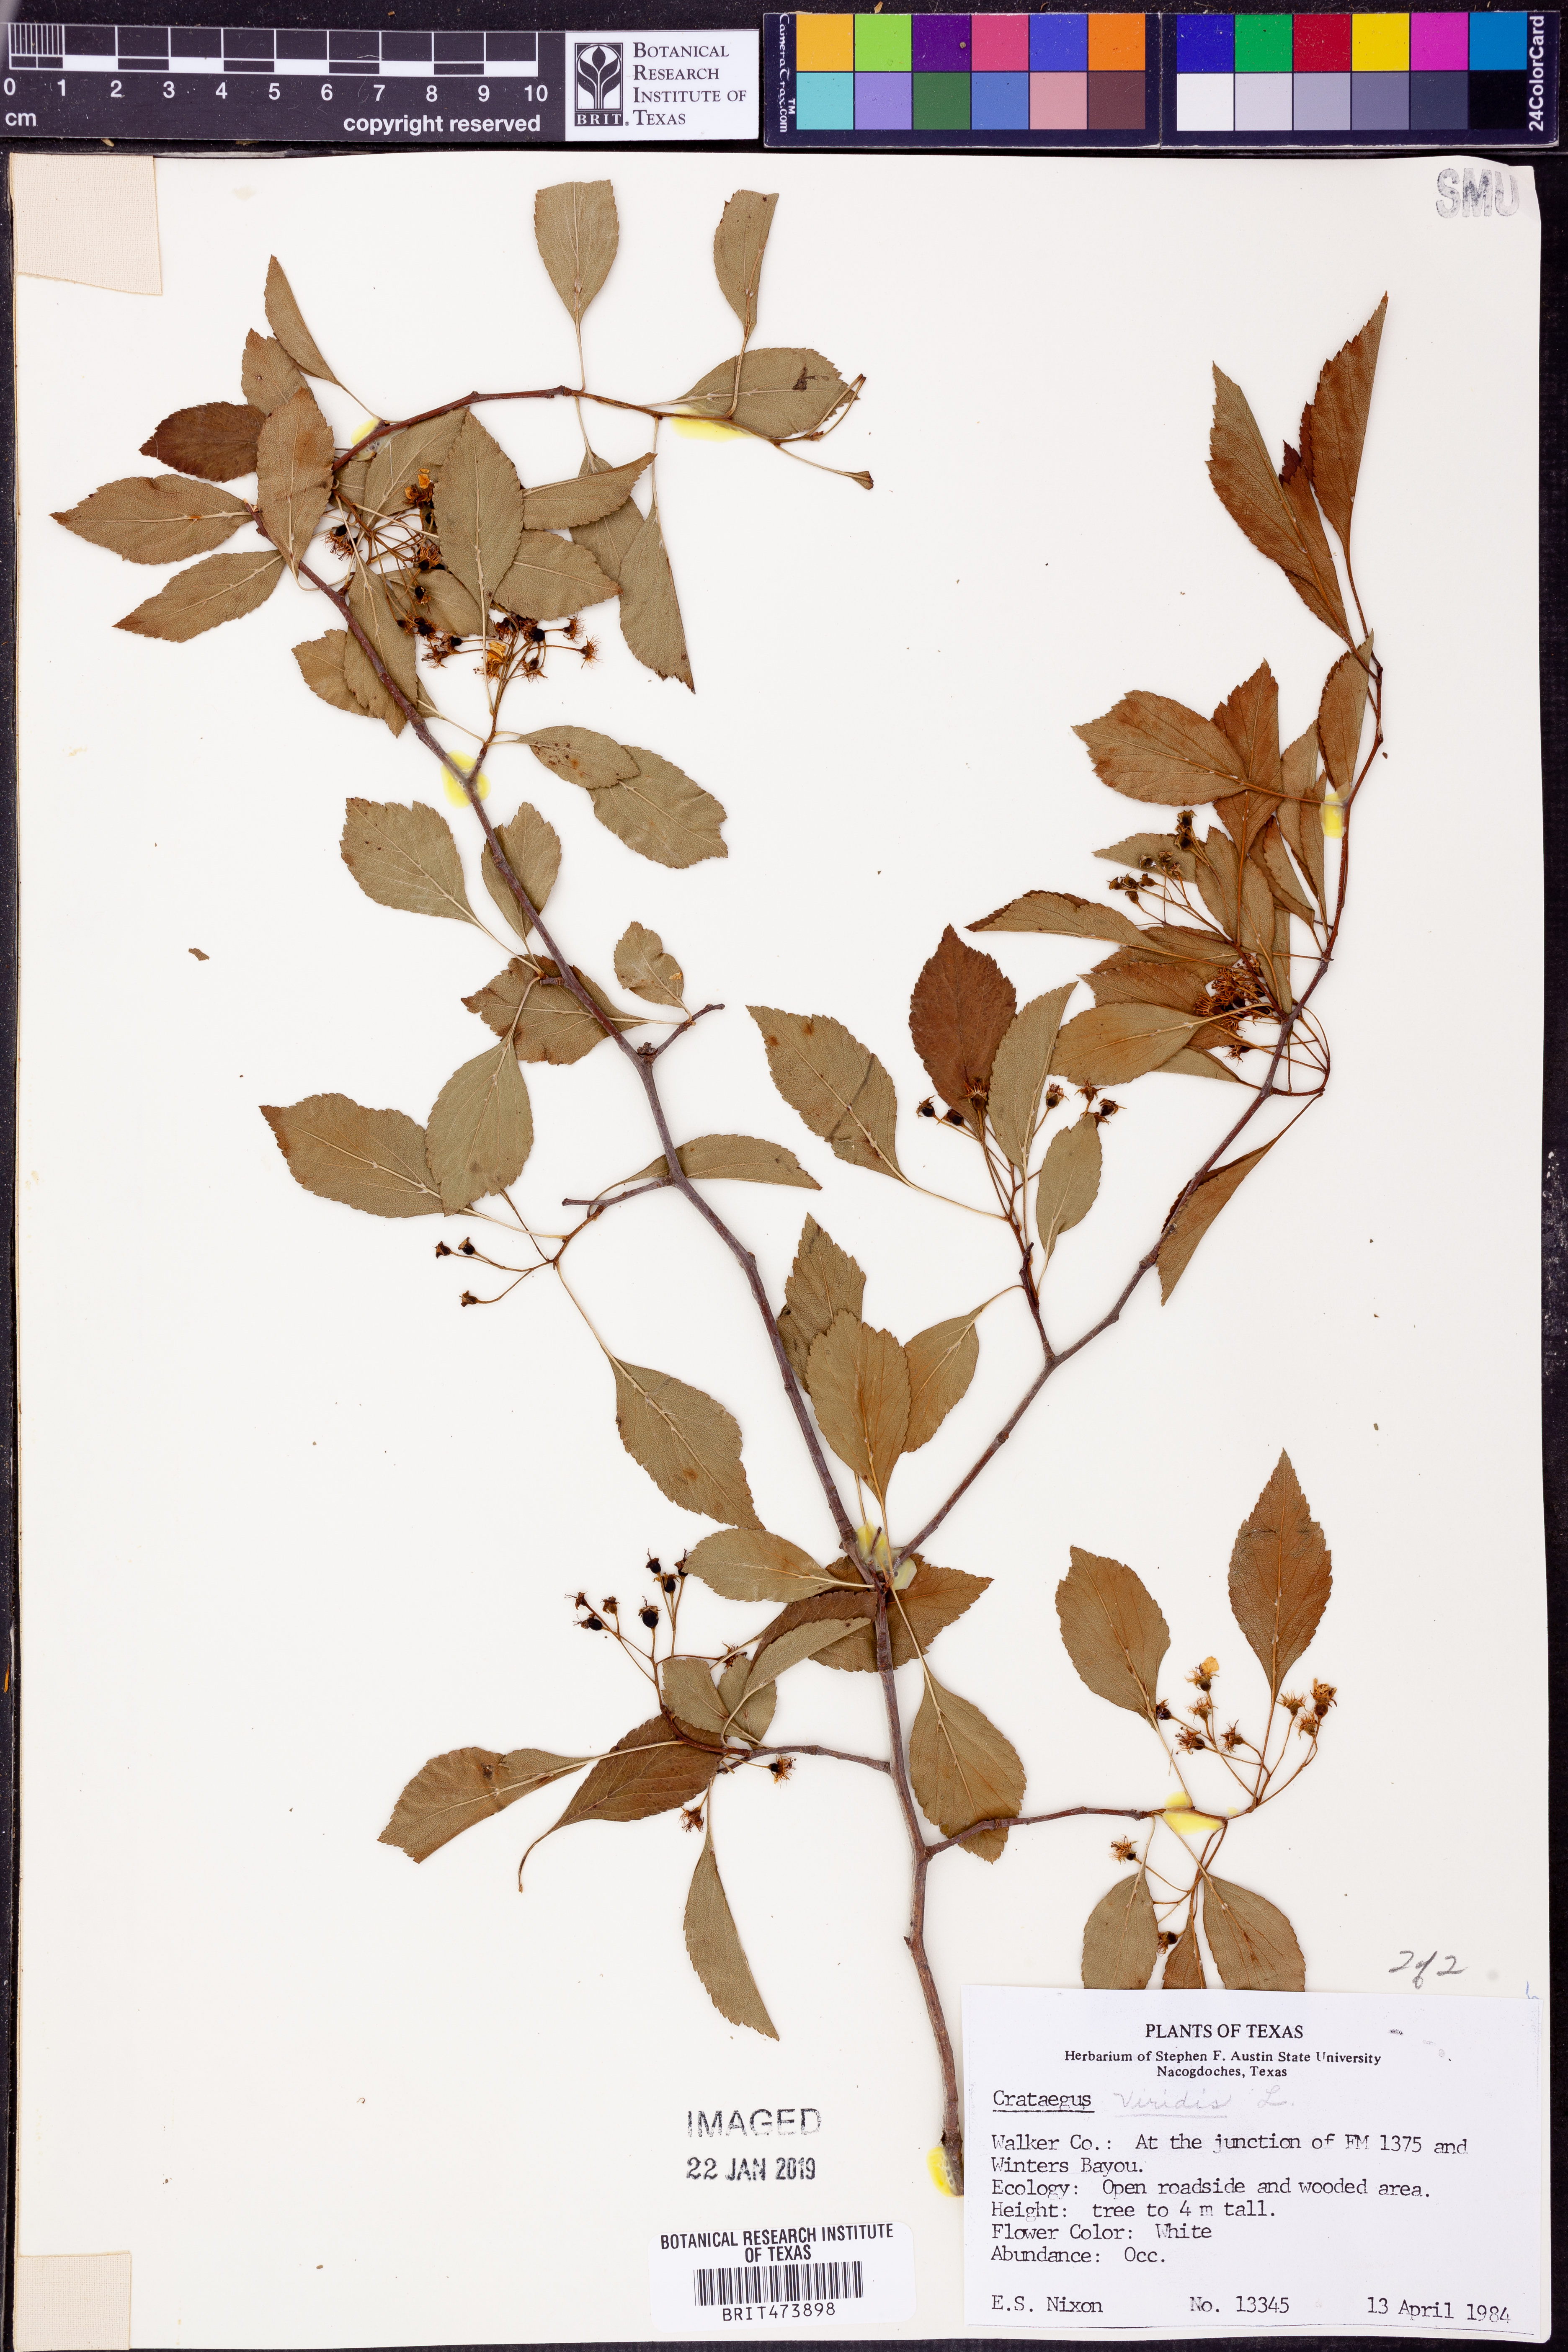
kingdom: Plantae
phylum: Tracheophyta
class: Magnoliopsida
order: Rosales
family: Rosaceae
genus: Crataegus
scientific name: Crataegus viridis
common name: Southernthorn
